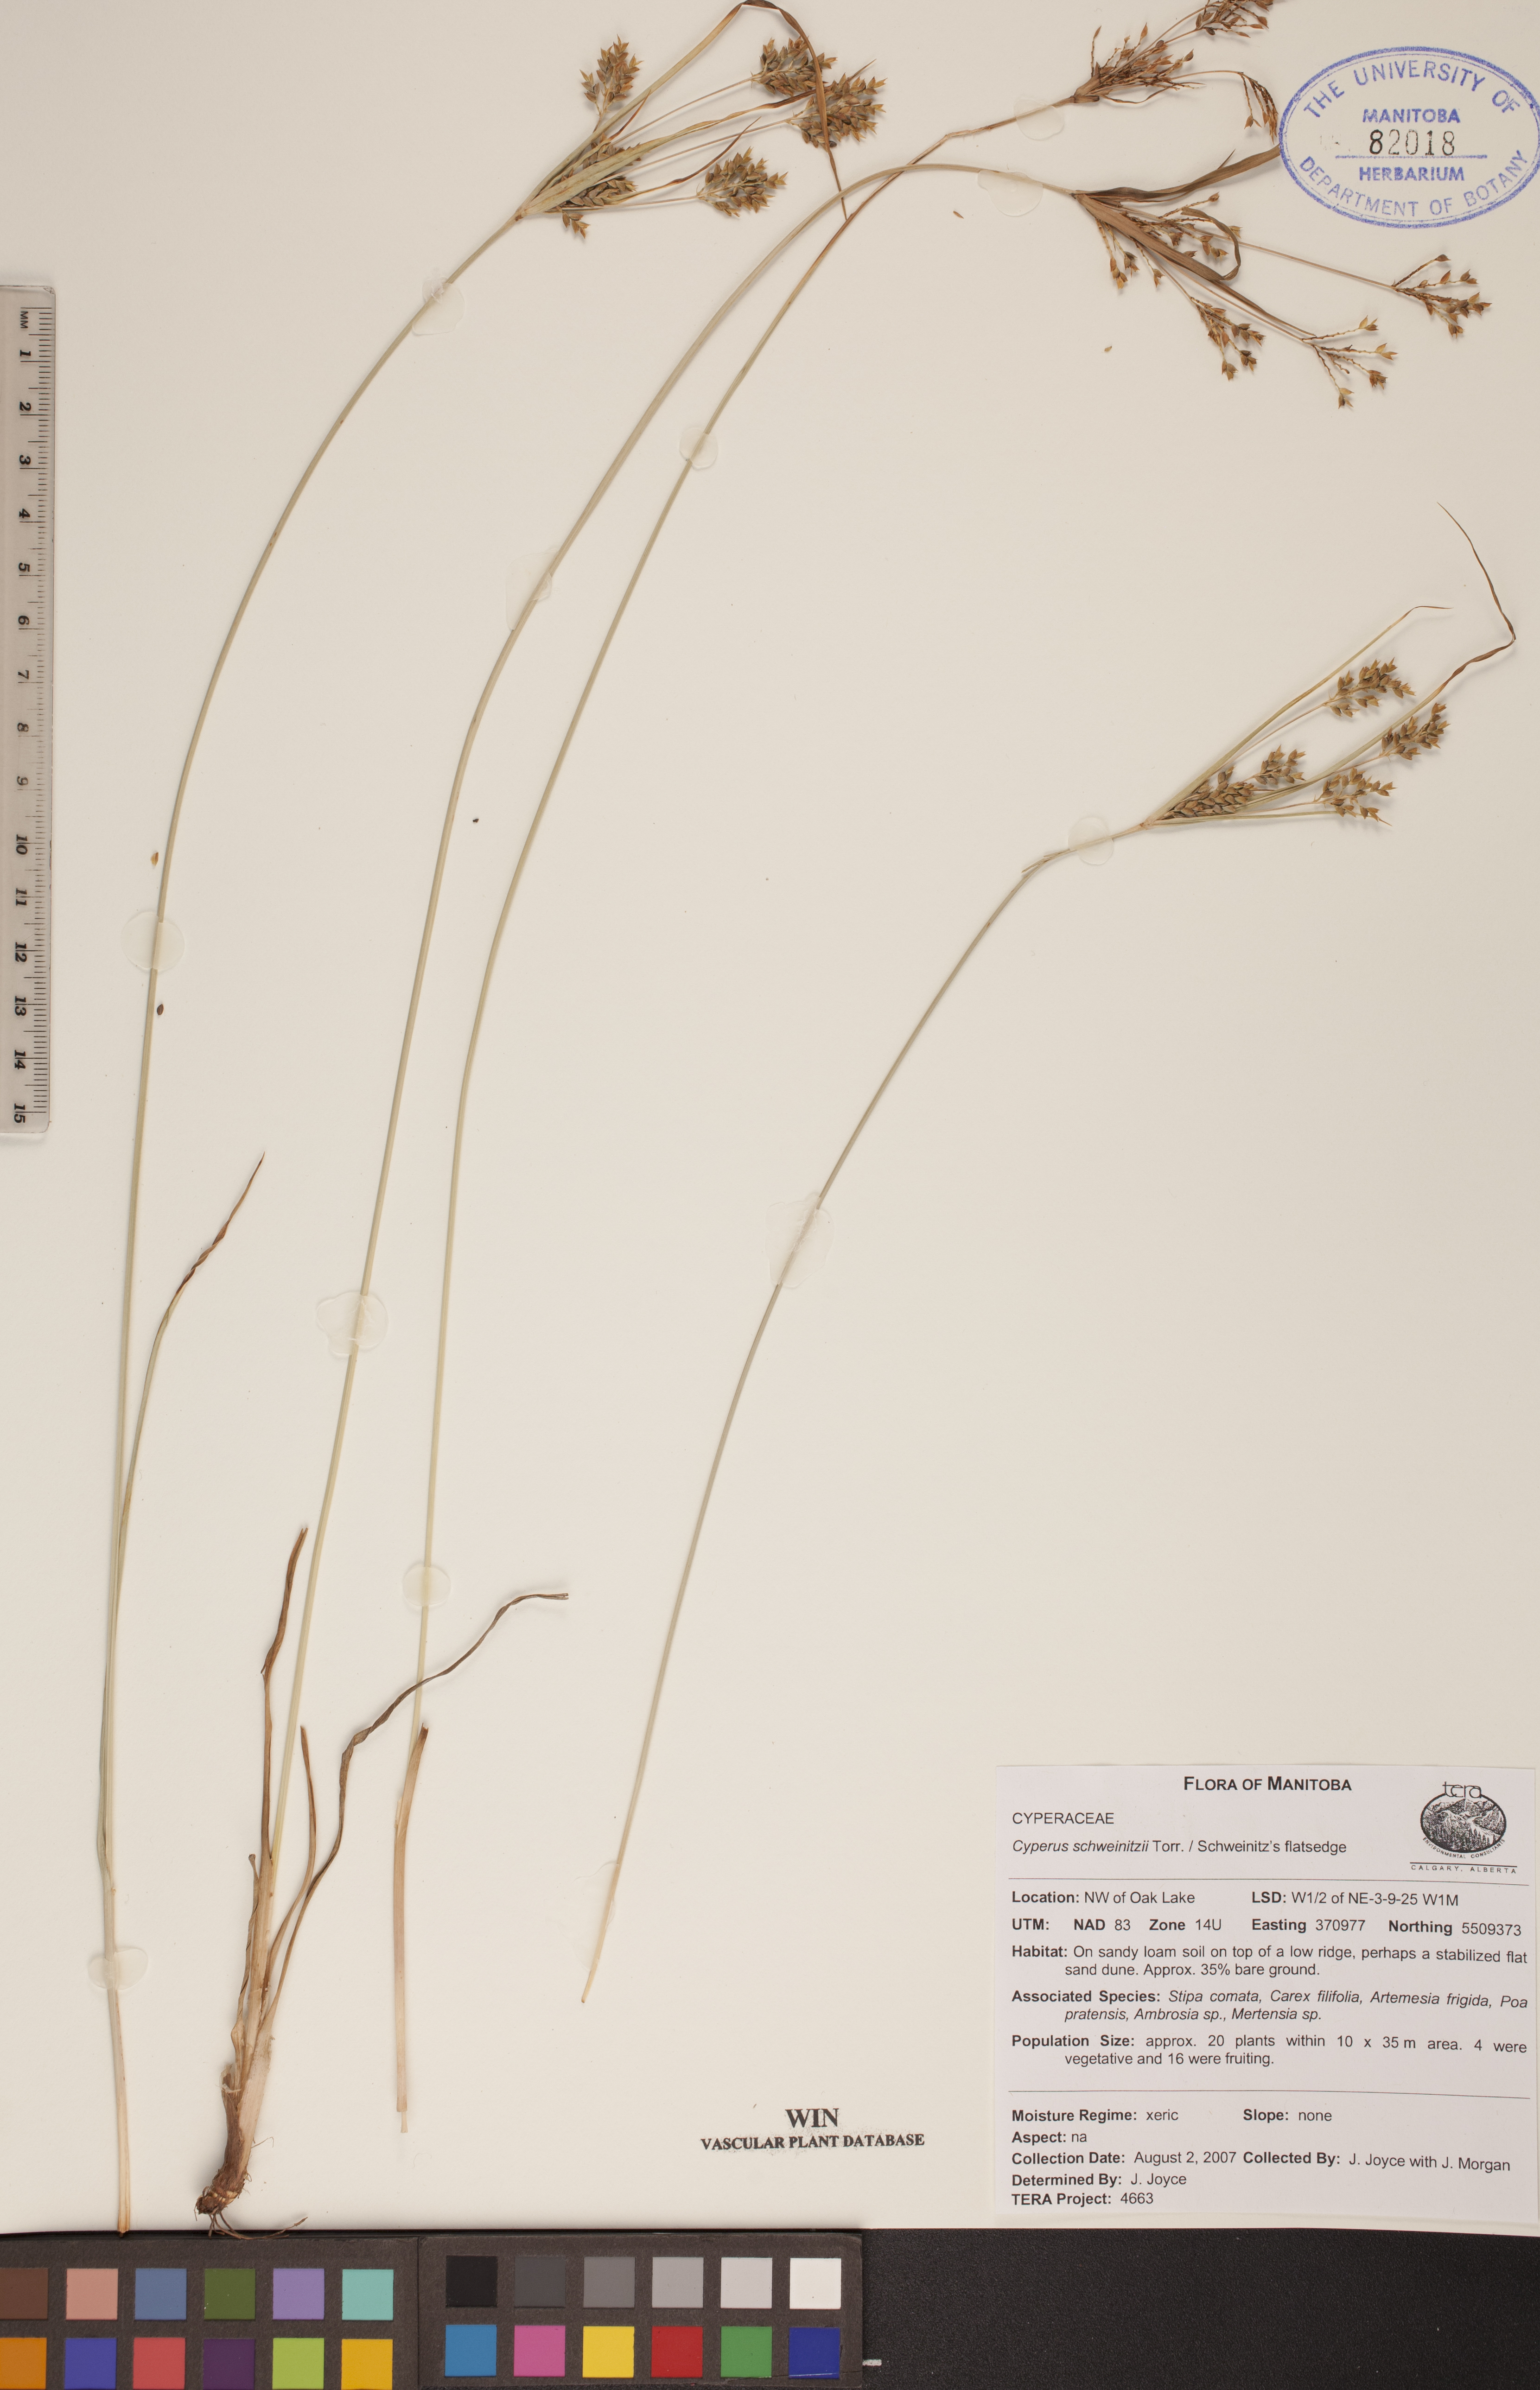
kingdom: Plantae
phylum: Tracheophyta
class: Liliopsida
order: Poales
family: Cyperaceae
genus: Cyperus
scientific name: Cyperus schweinitzii
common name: Schweinitz's cyperus
